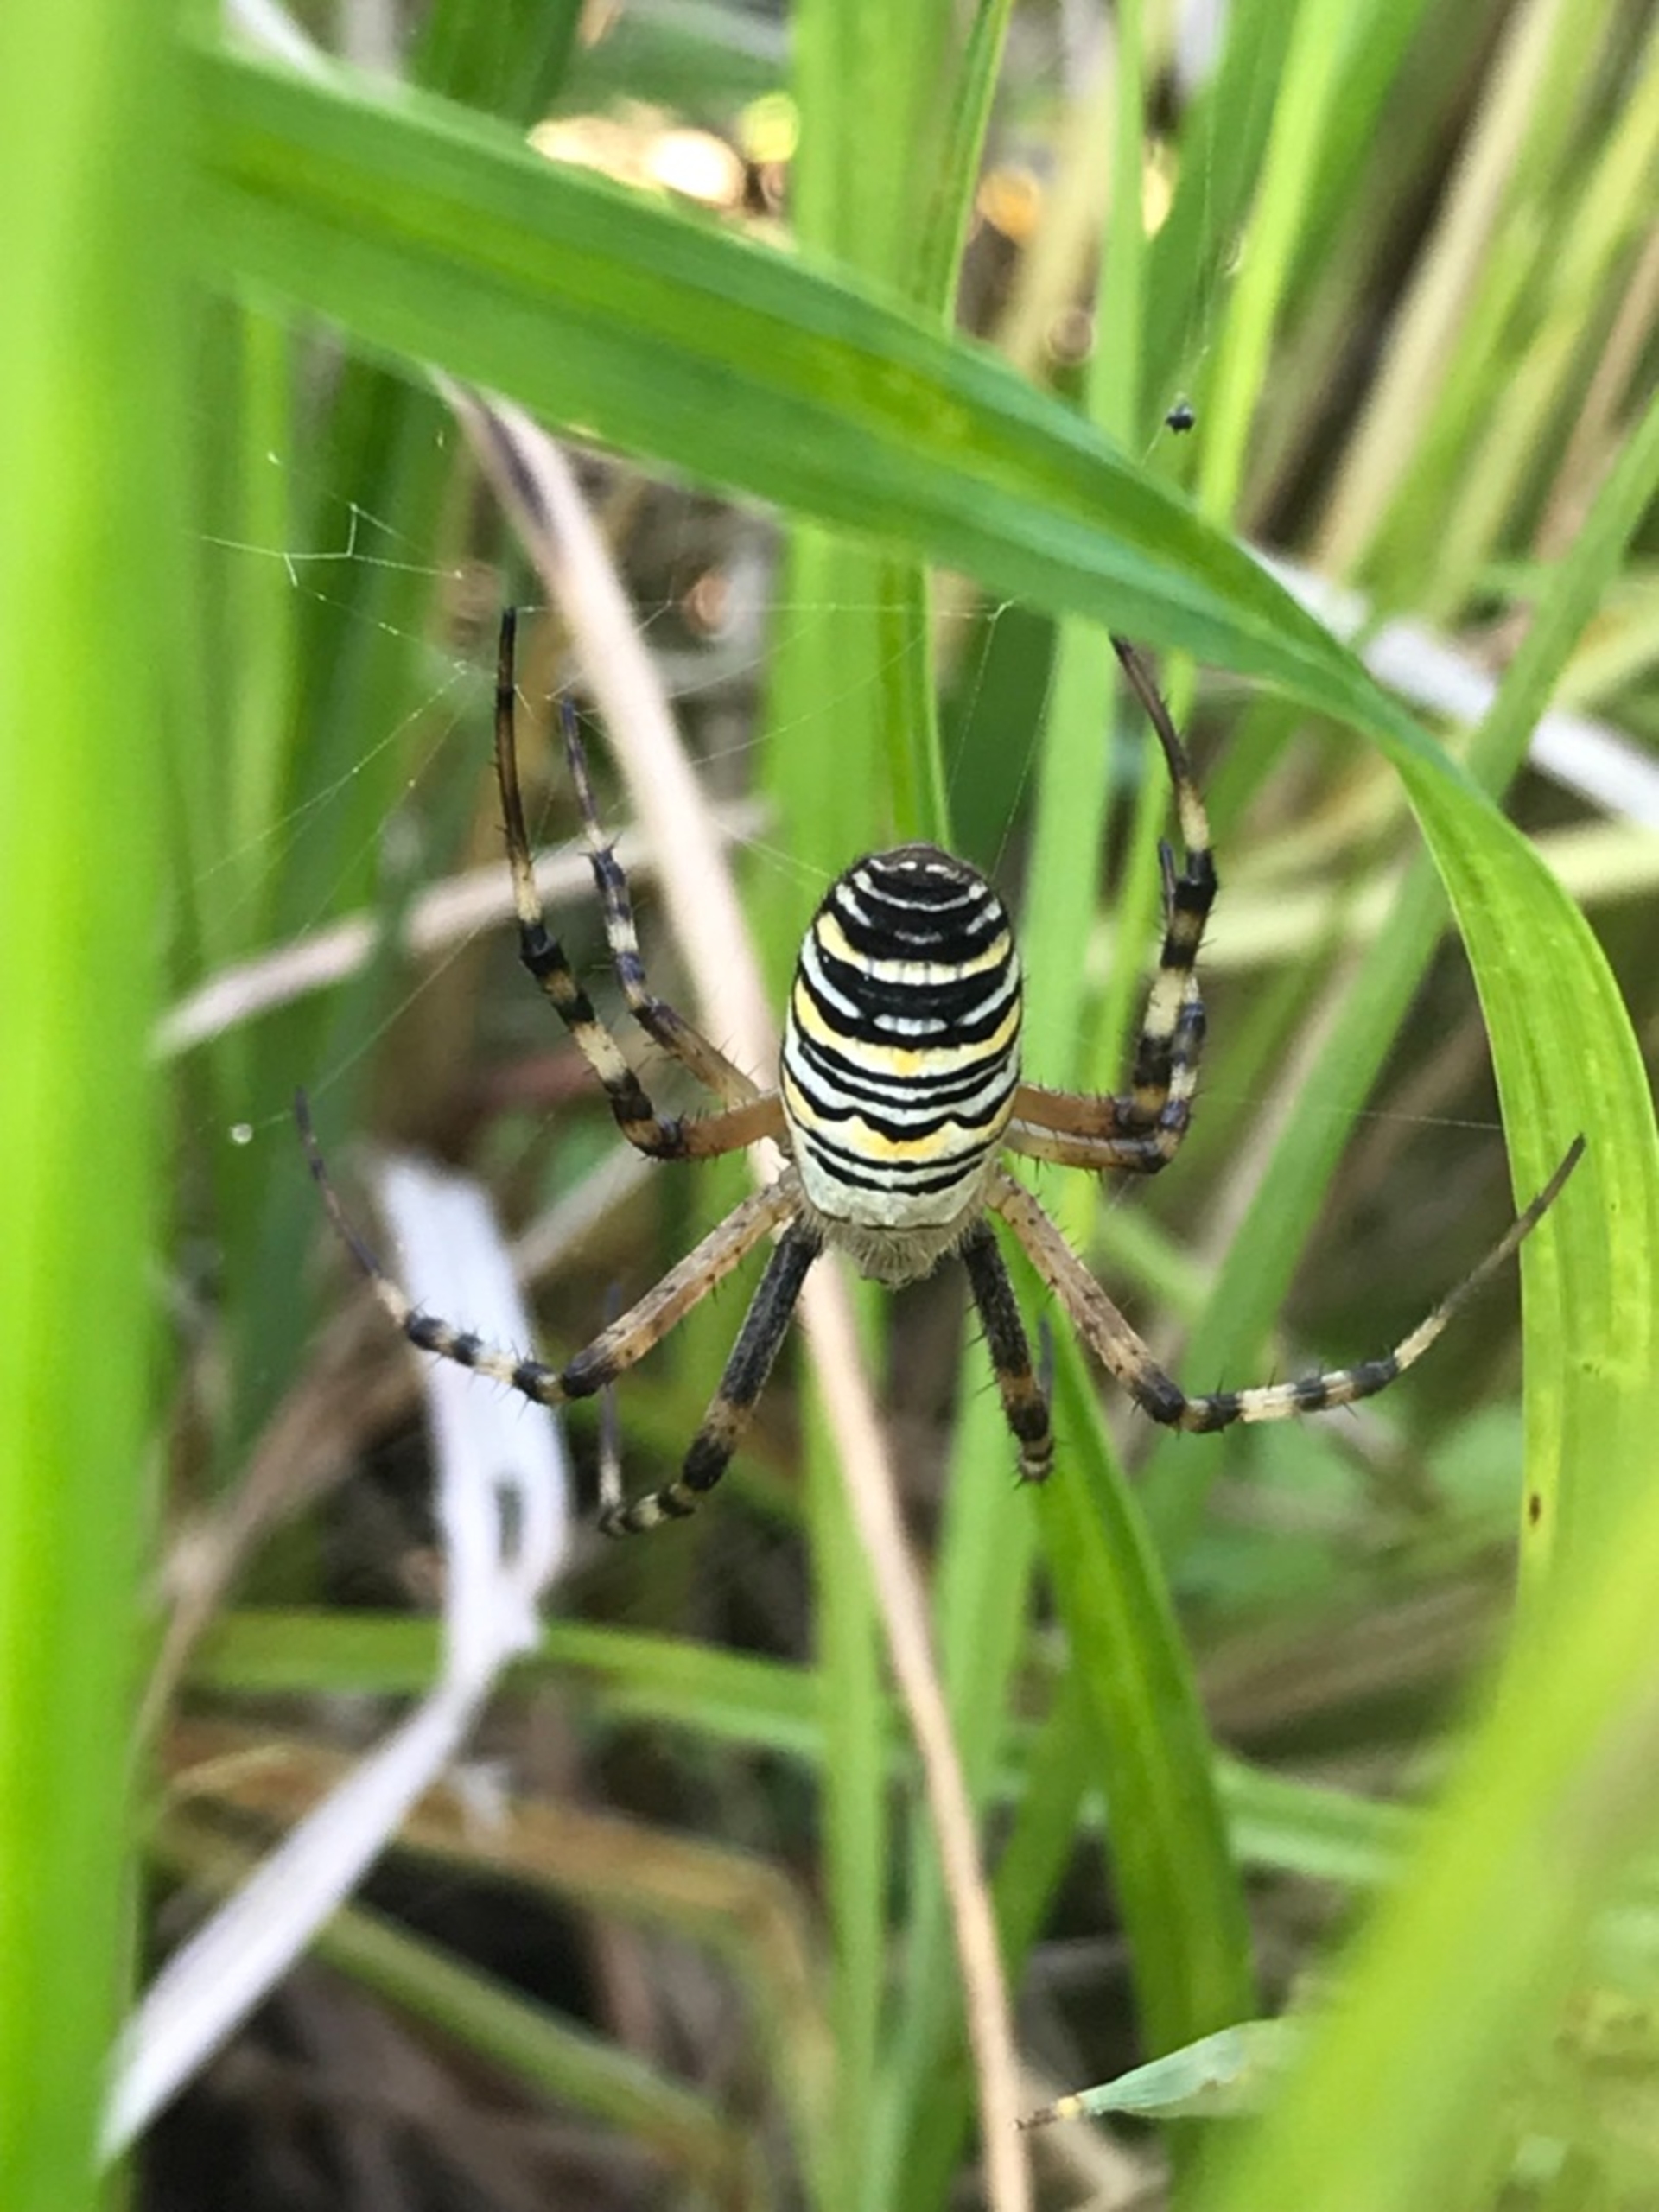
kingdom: Animalia
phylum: Arthropoda
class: Arachnida
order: Araneae
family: Araneidae
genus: Argiope
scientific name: Argiope bruennichi
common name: Hvepseedderkop
